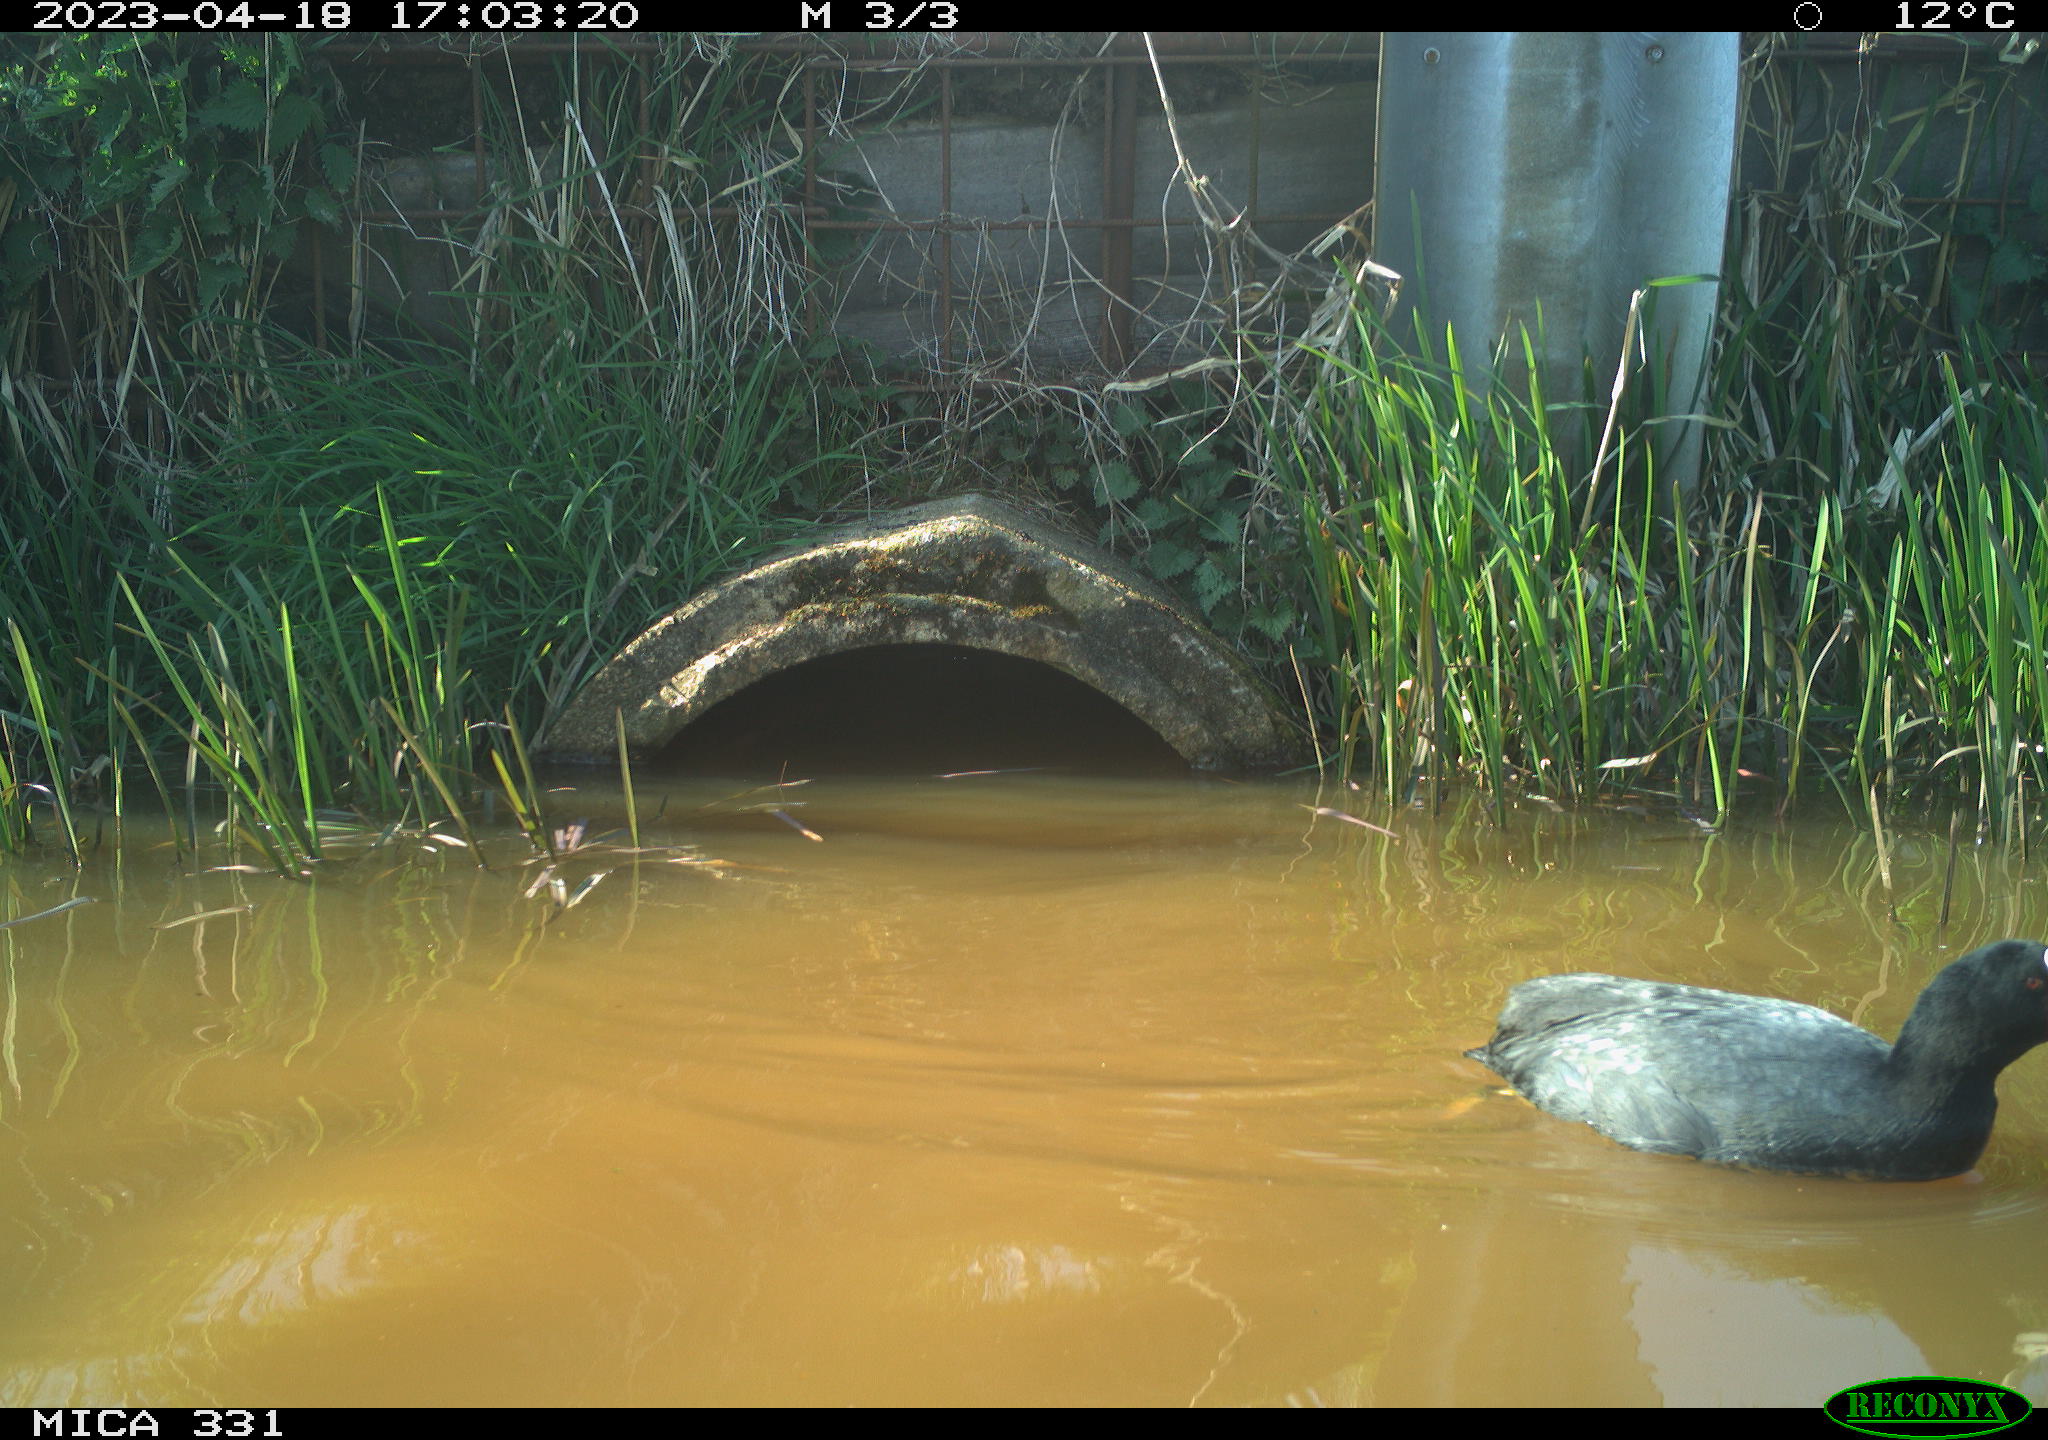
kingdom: Animalia
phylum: Chordata
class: Aves
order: Gruiformes
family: Rallidae
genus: Fulica
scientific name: Fulica atra
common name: Eurasian coot
